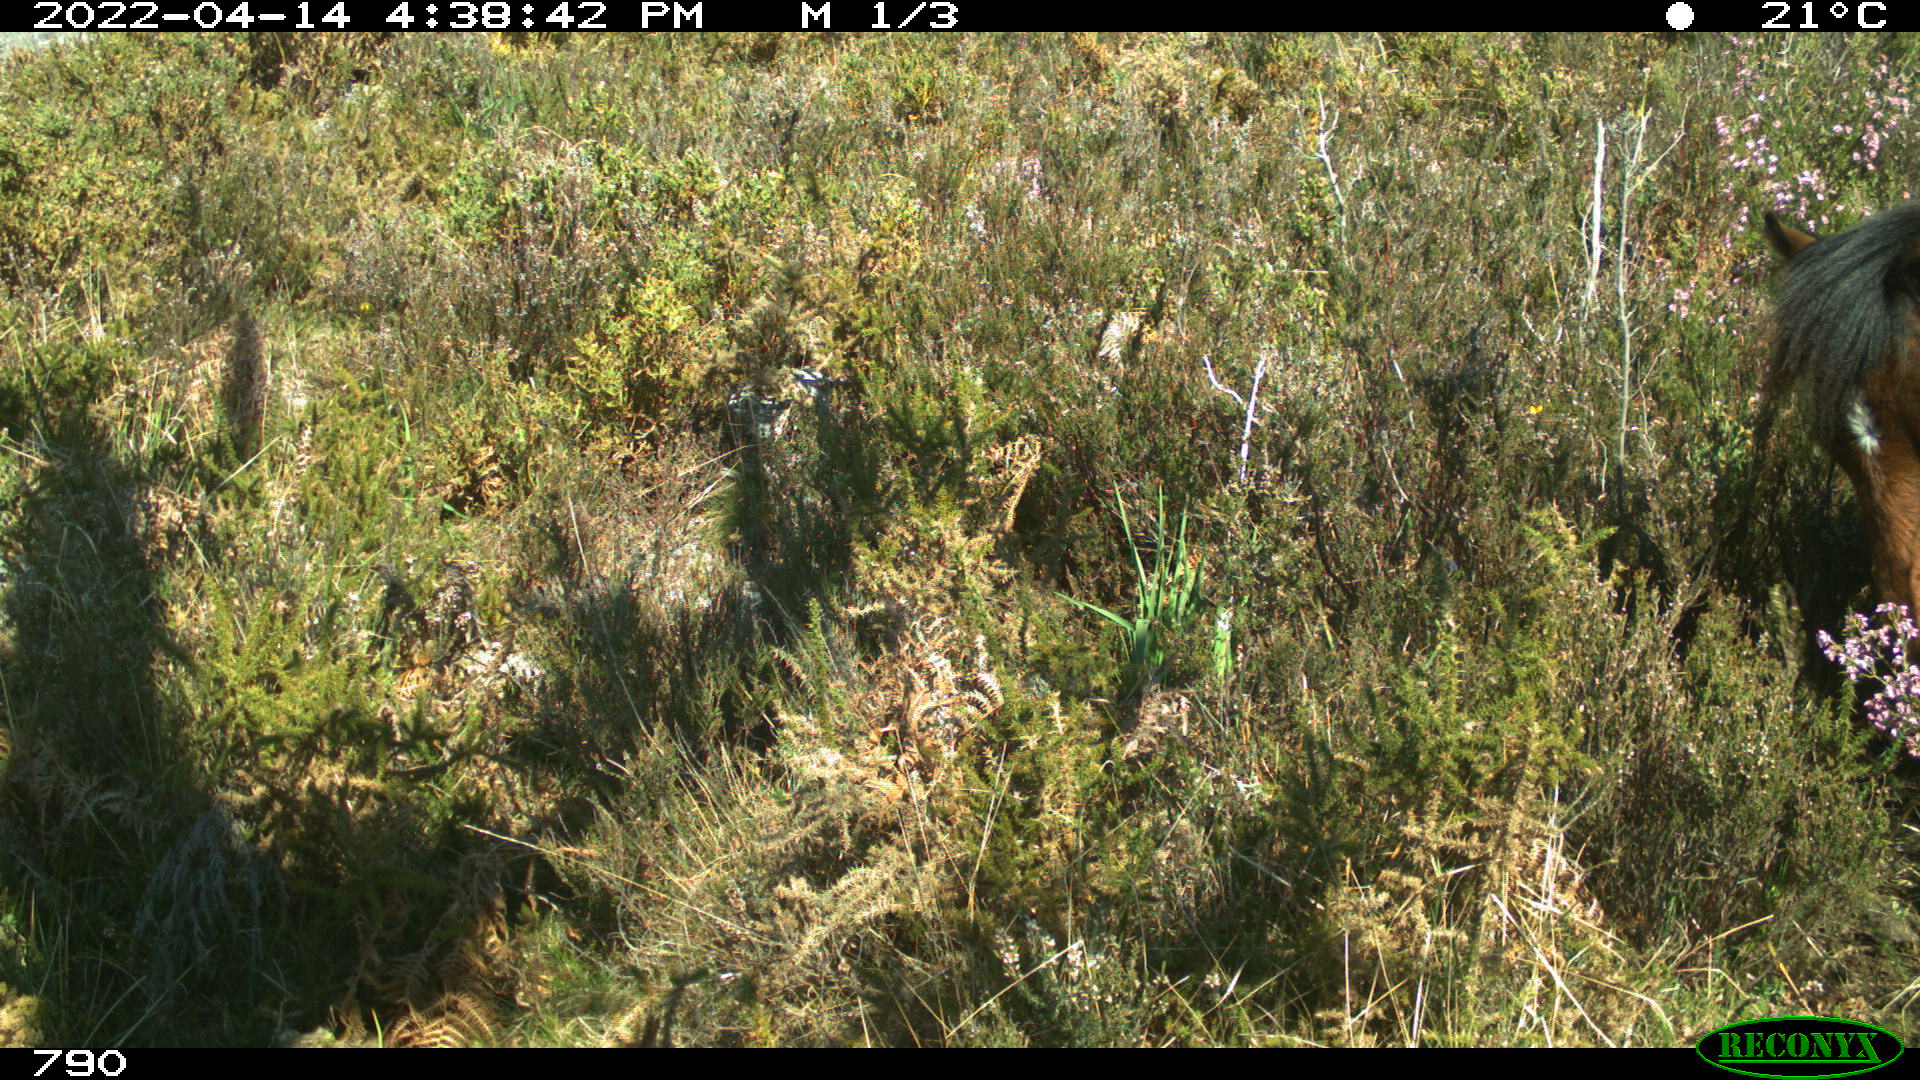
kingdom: Animalia
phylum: Chordata
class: Mammalia
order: Perissodactyla
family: Equidae
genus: Equus
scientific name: Equus caballus
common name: Horse
